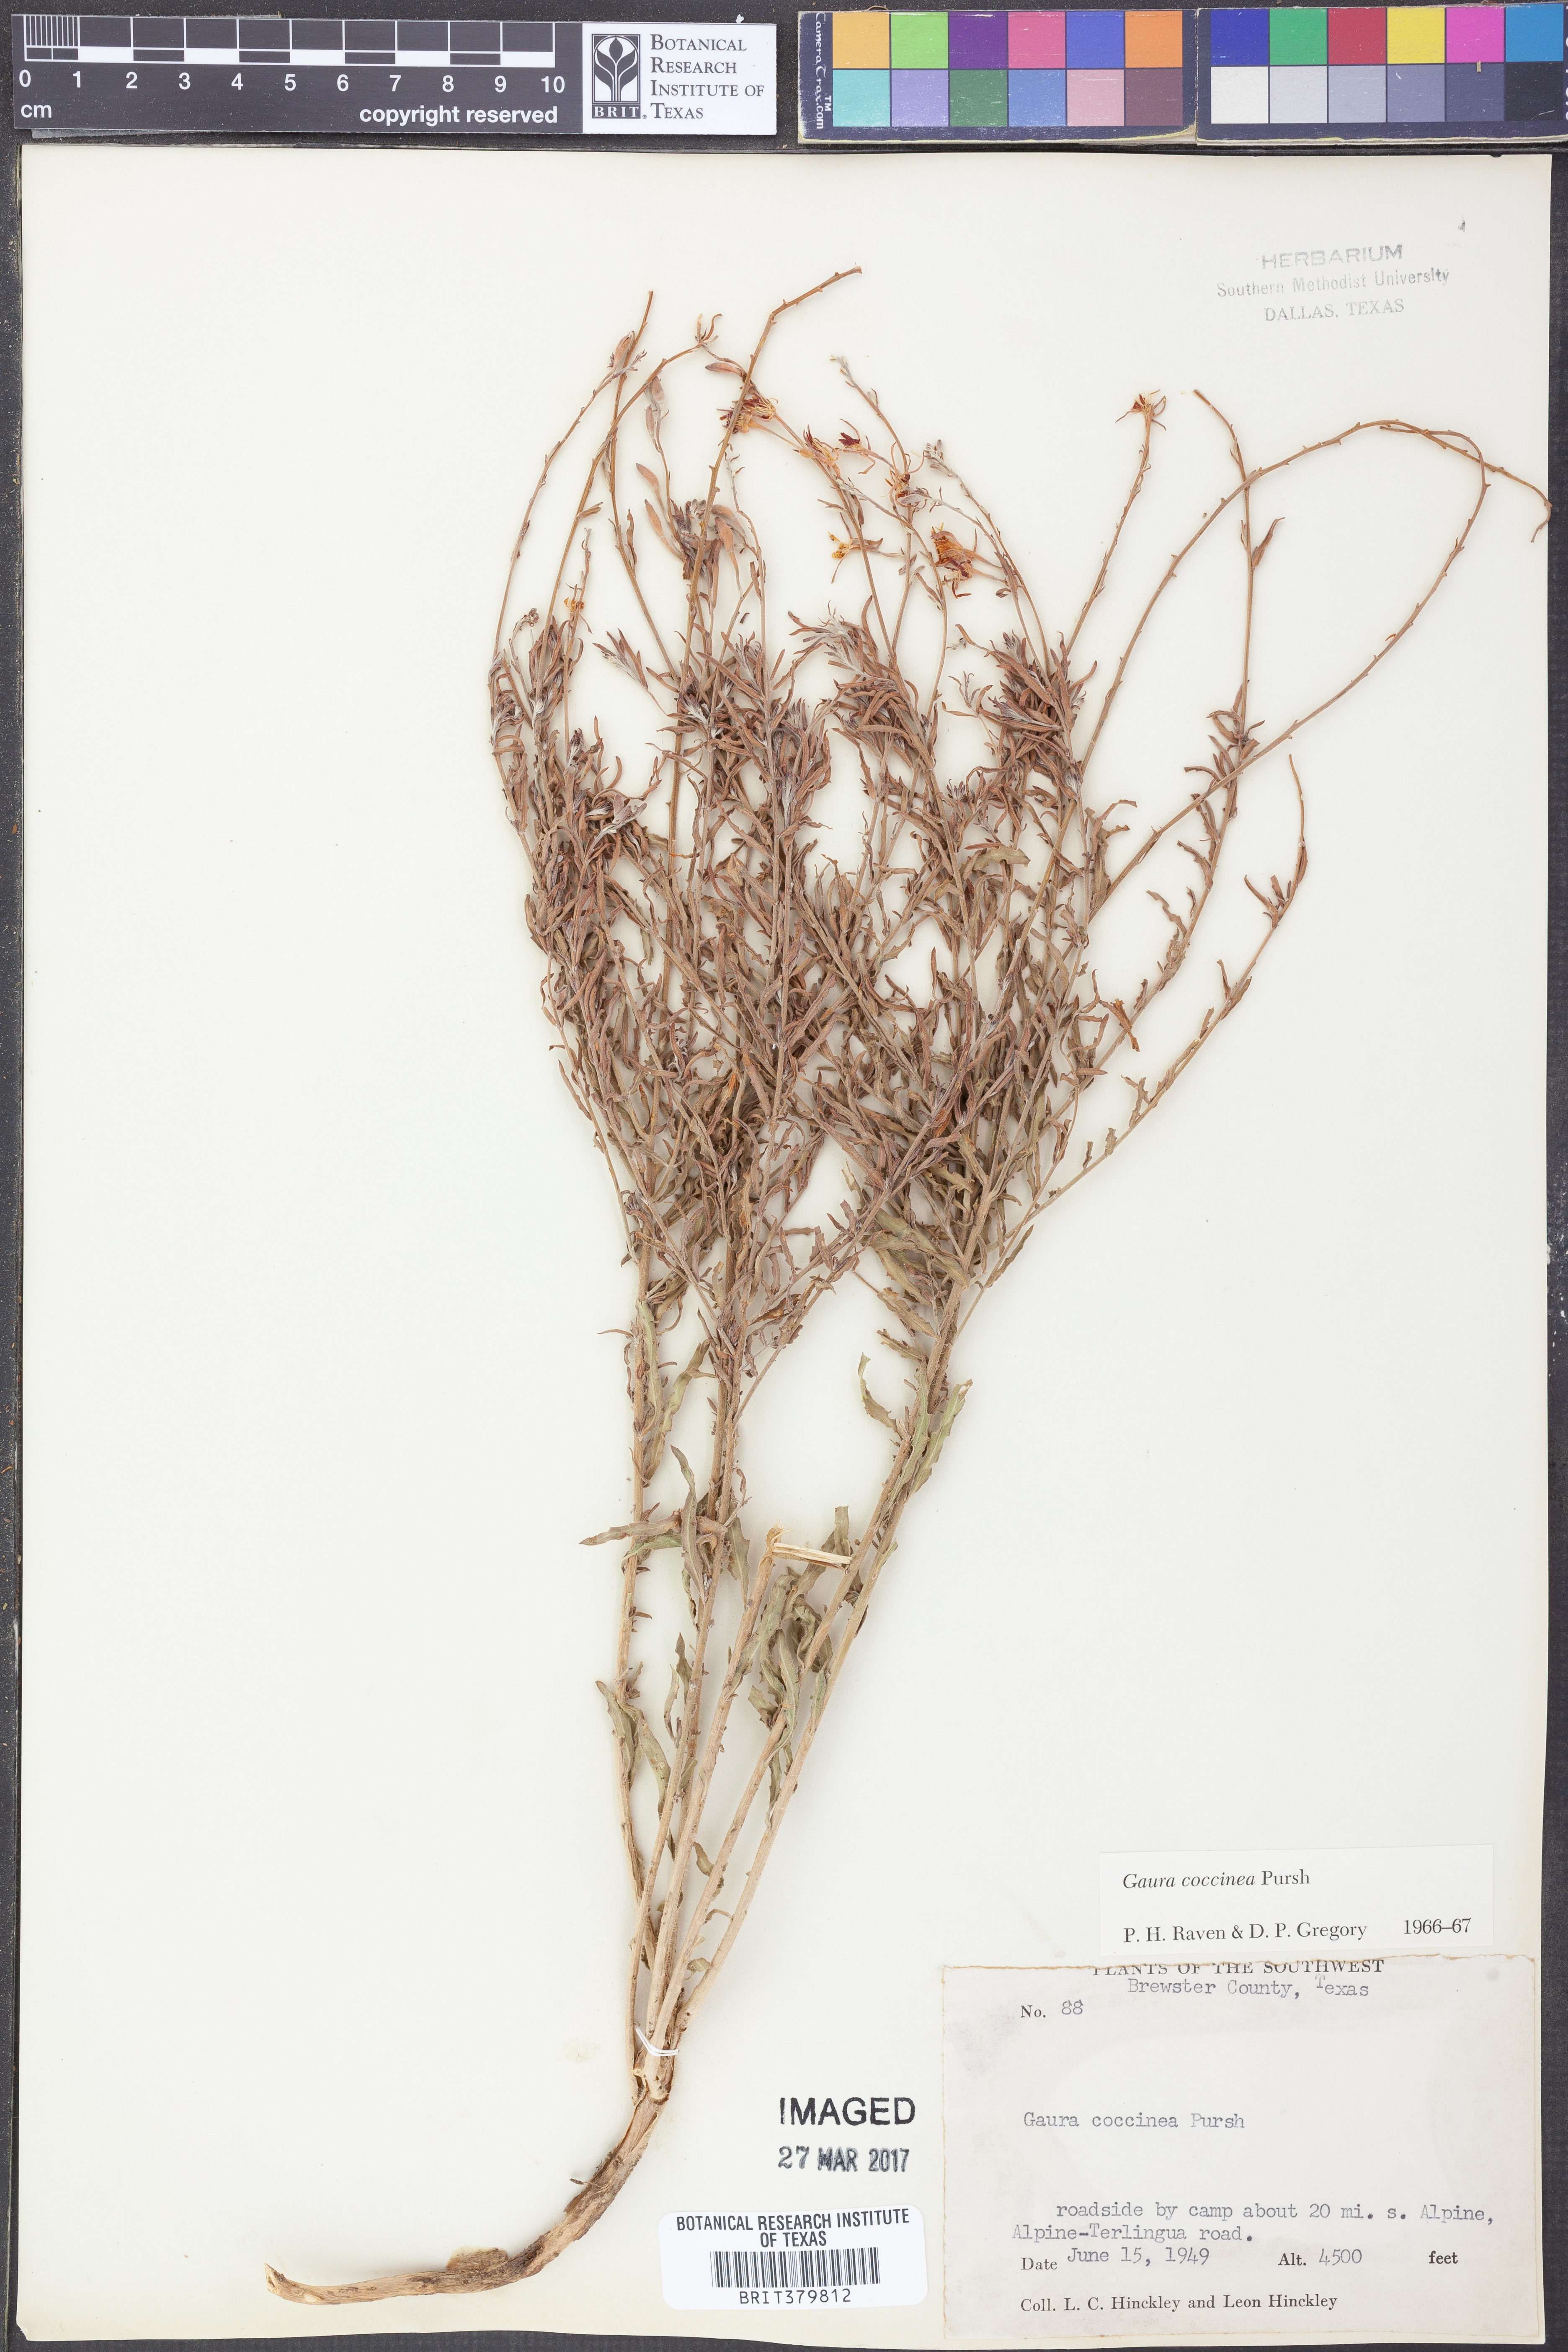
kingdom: Plantae
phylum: Tracheophyta
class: Magnoliopsida
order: Myrtales
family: Onagraceae
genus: Oenothera
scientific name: Oenothera suffrutescens
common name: Scarlet beeblossom
